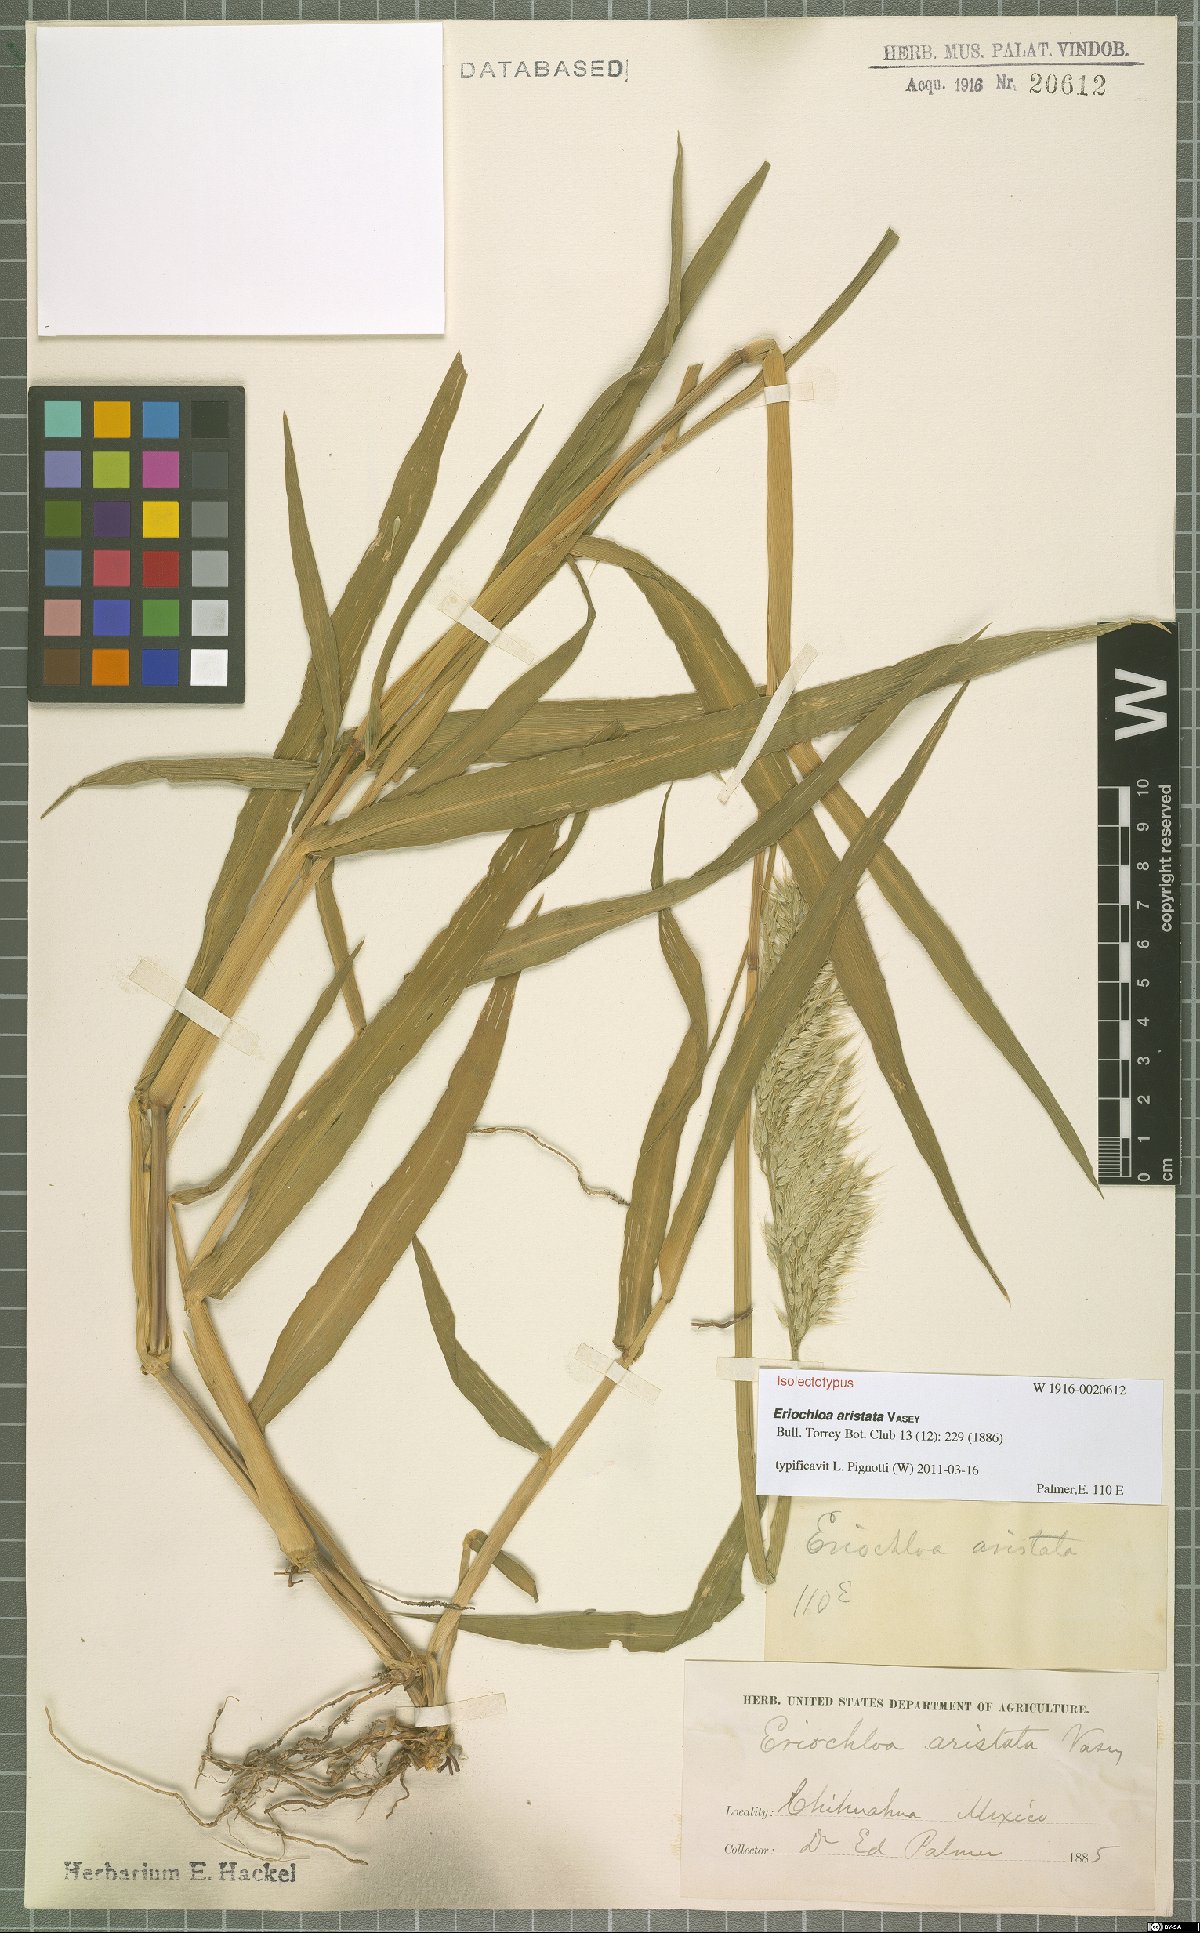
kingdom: Plantae
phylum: Tracheophyta
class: Liliopsida
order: Poales
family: Poaceae
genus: Eriochloa
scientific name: Eriochloa aristata
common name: Bearded cup grass
